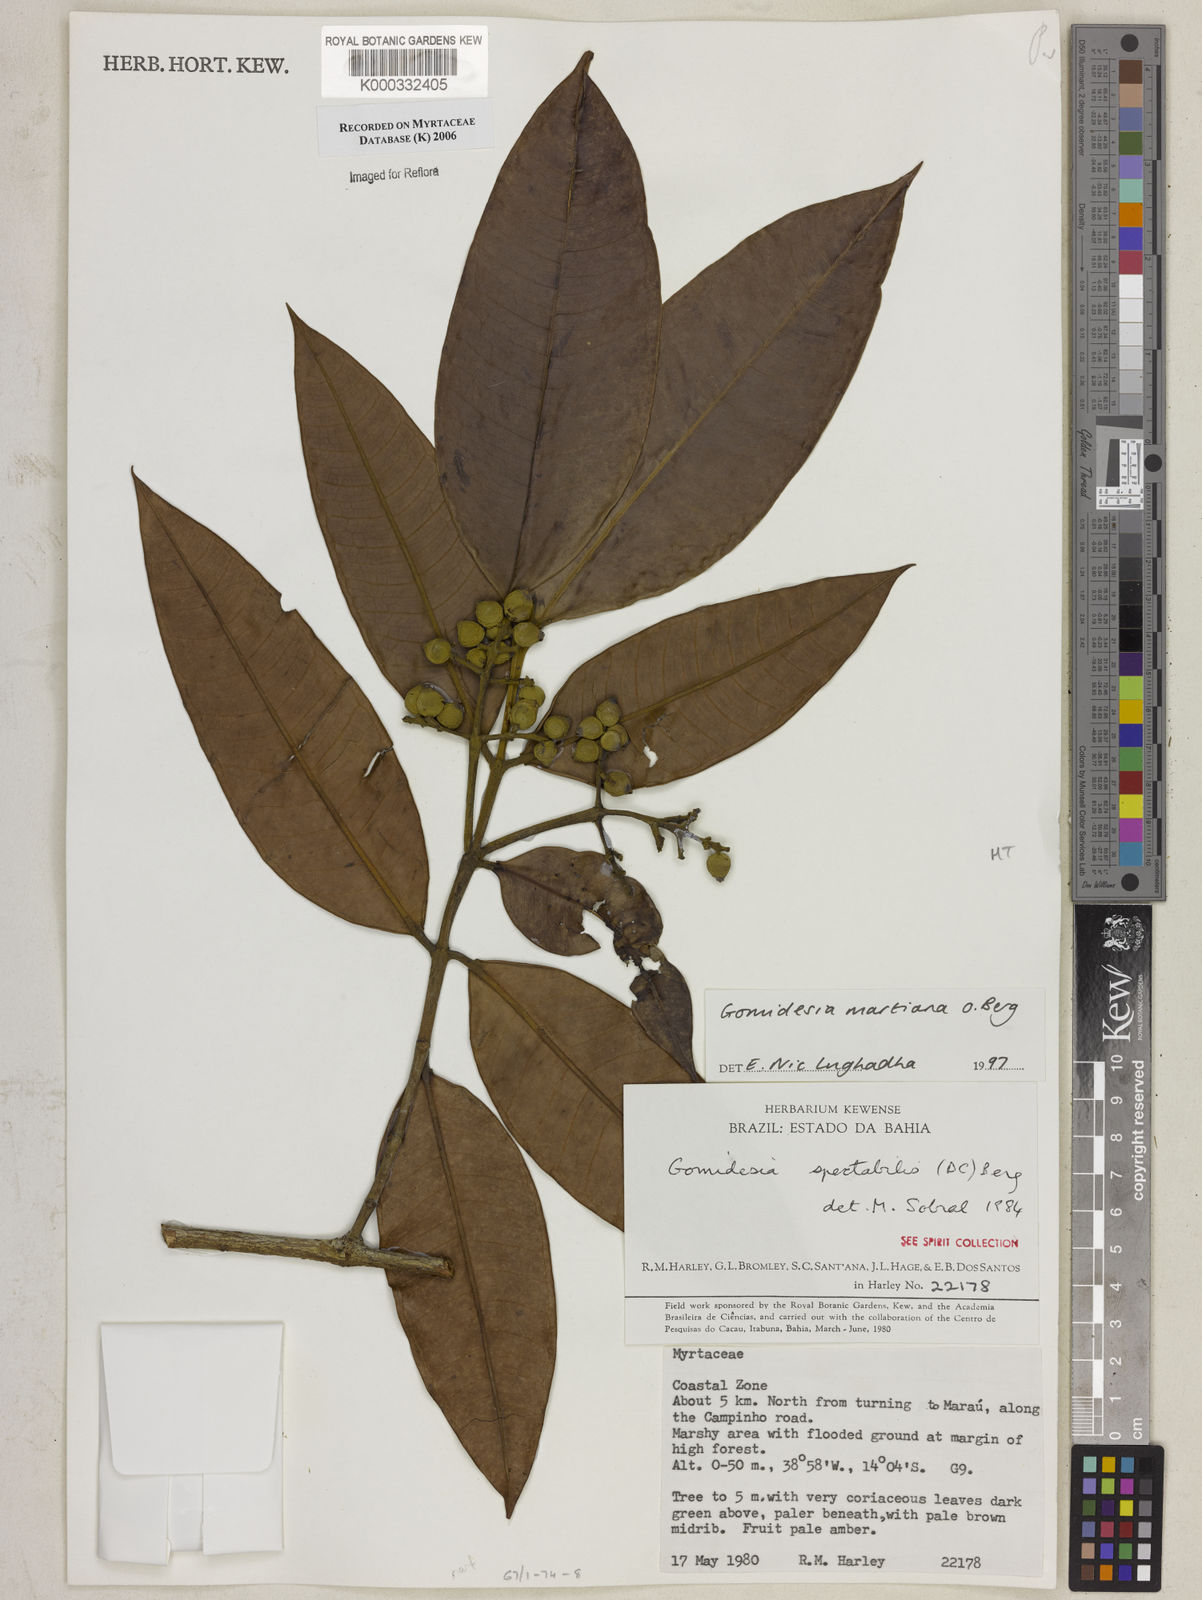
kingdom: Plantae
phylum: Tracheophyta
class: Magnoliopsida
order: Myrtales
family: Myrtaceae
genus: Myrcia
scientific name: Myrcia vittoriana
